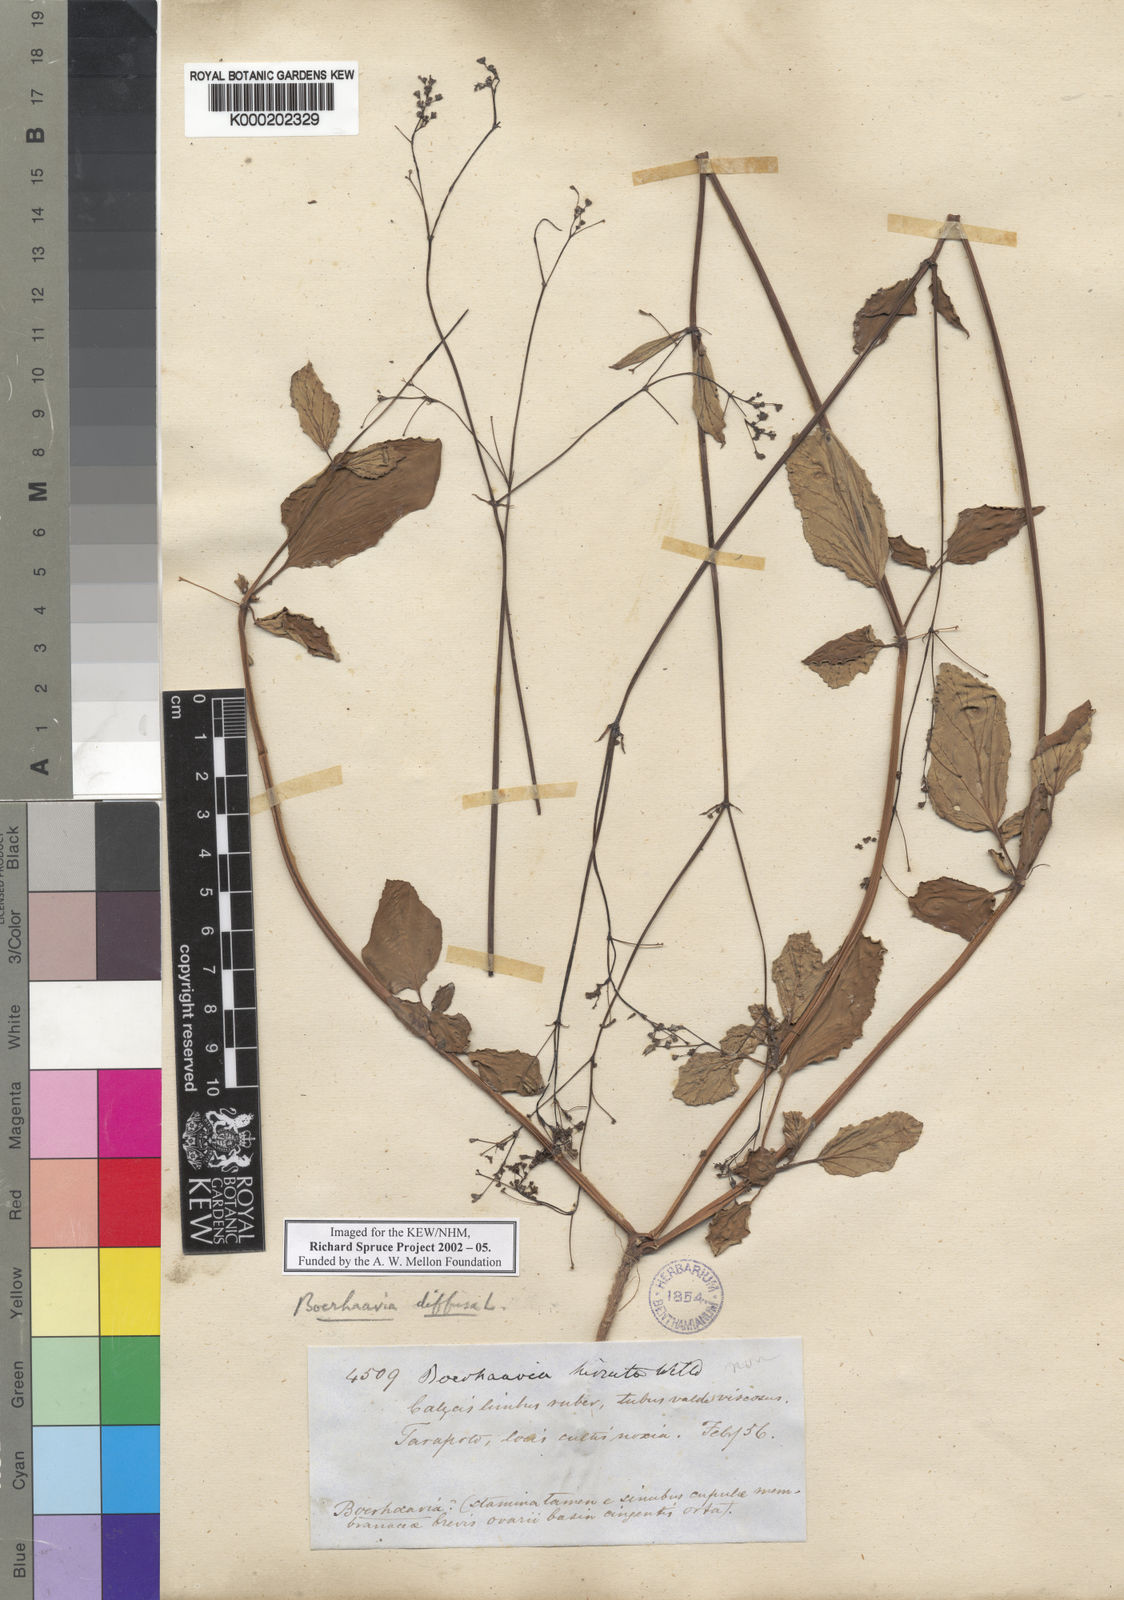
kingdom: Plantae
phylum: Tracheophyta
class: Magnoliopsida
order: Caryophyllales
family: Nyctaginaceae
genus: Boerhavia
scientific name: Boerhavia diffusa
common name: Red spiderling
